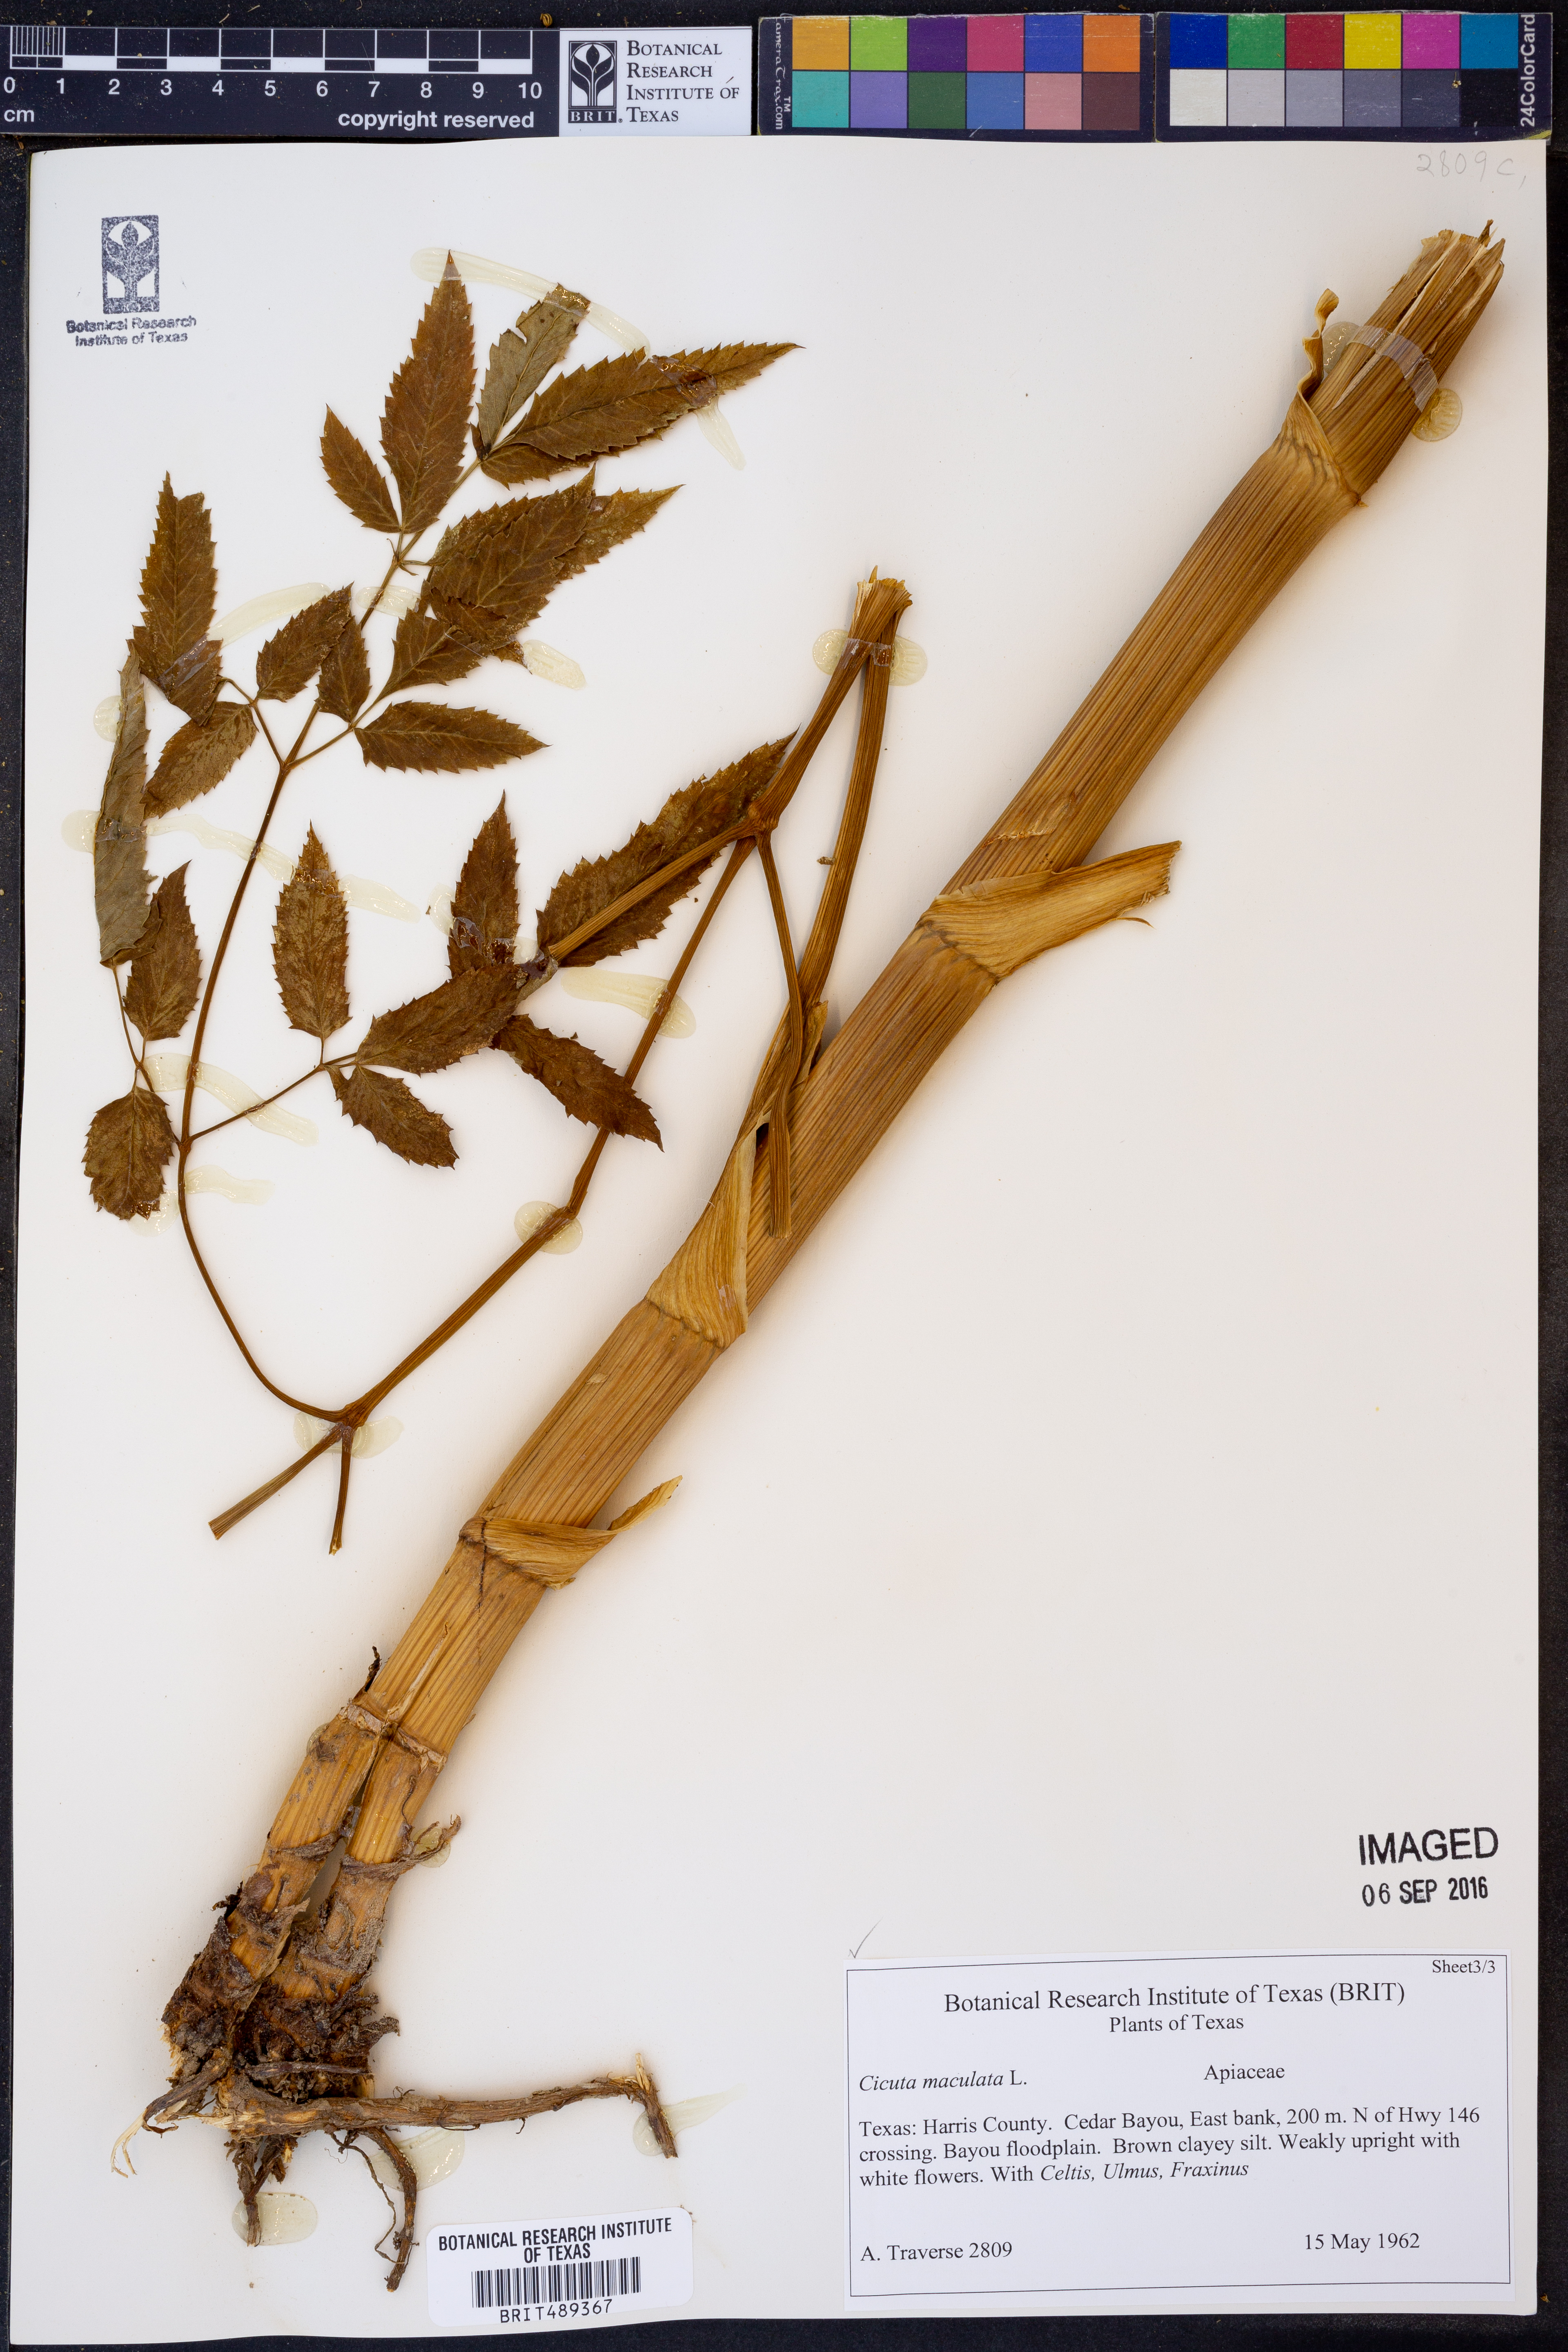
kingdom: Plantae
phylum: Tracheophyta
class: Magnoliopsida
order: Apiales
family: Apiaceae
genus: Cicuta
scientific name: Cicuta maculata
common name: Spotted cowbane
